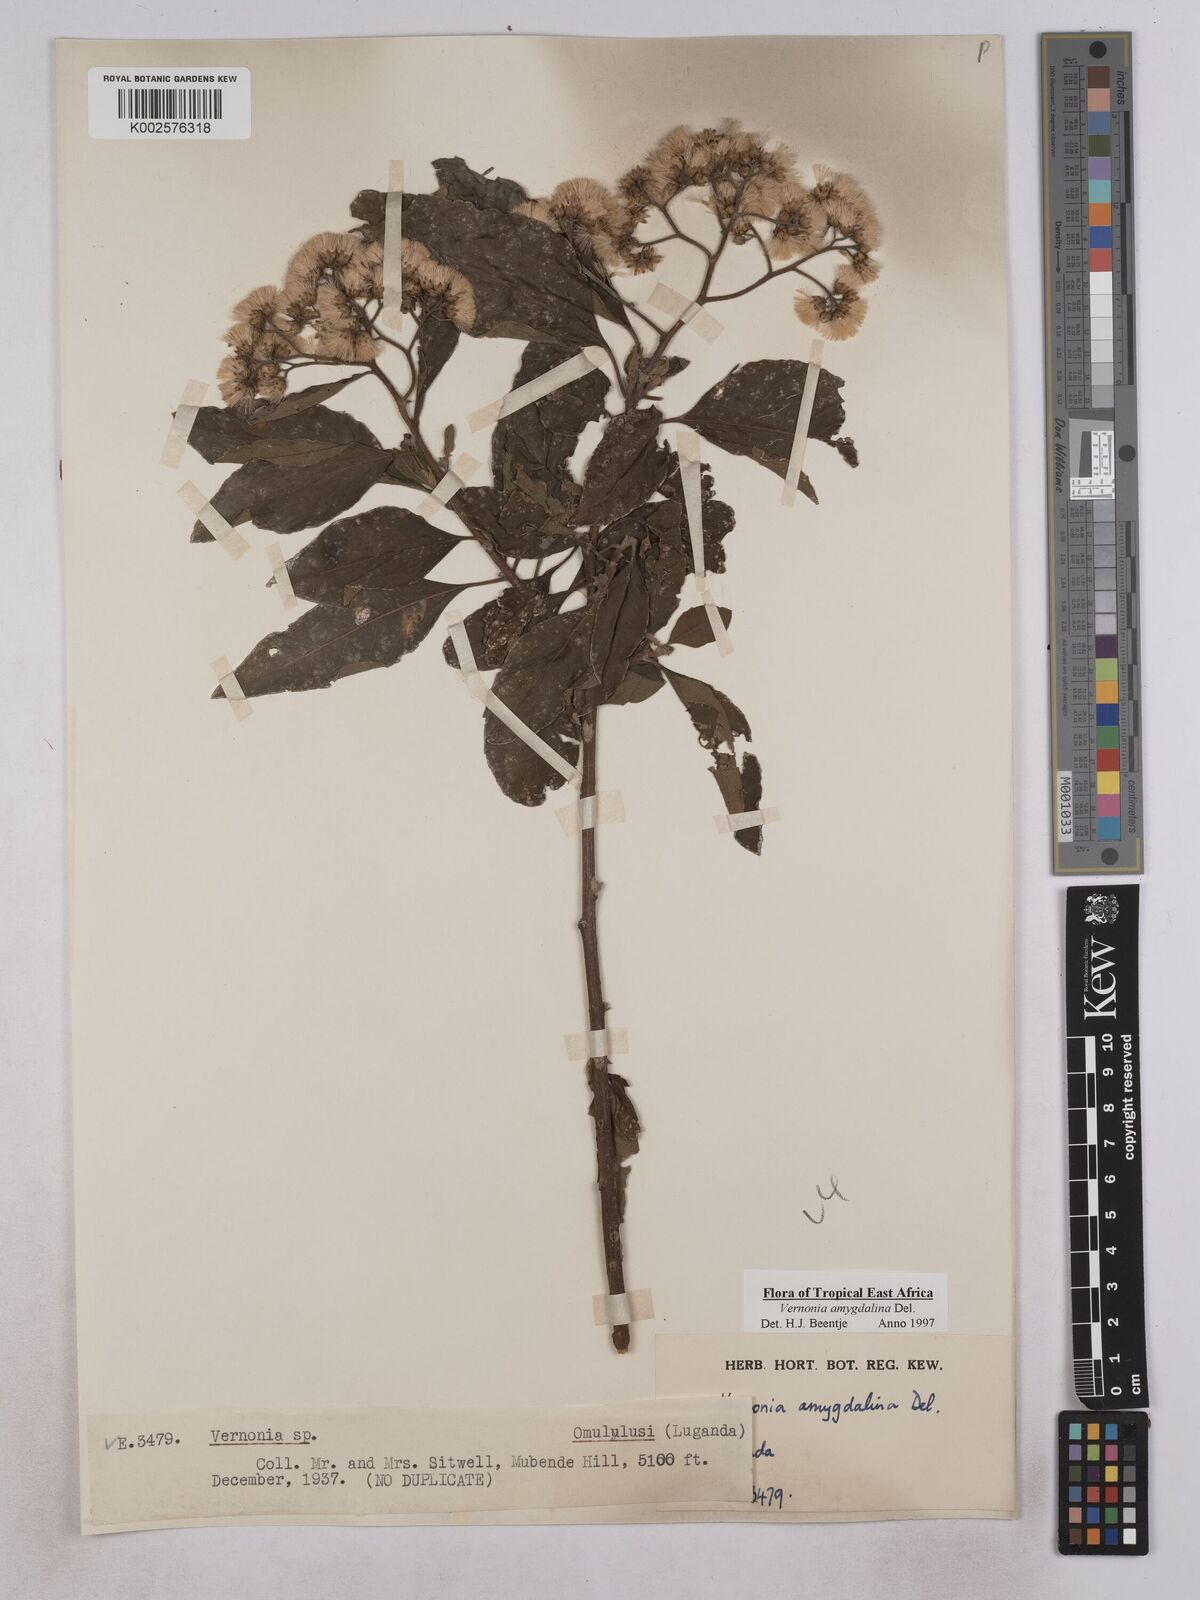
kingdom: Plantae
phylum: Tracheophyta
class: Magnoliopsida
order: Asterales
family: Asteraceae
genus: Gymnanthemum
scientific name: Gymnanthemum amygdalinum
